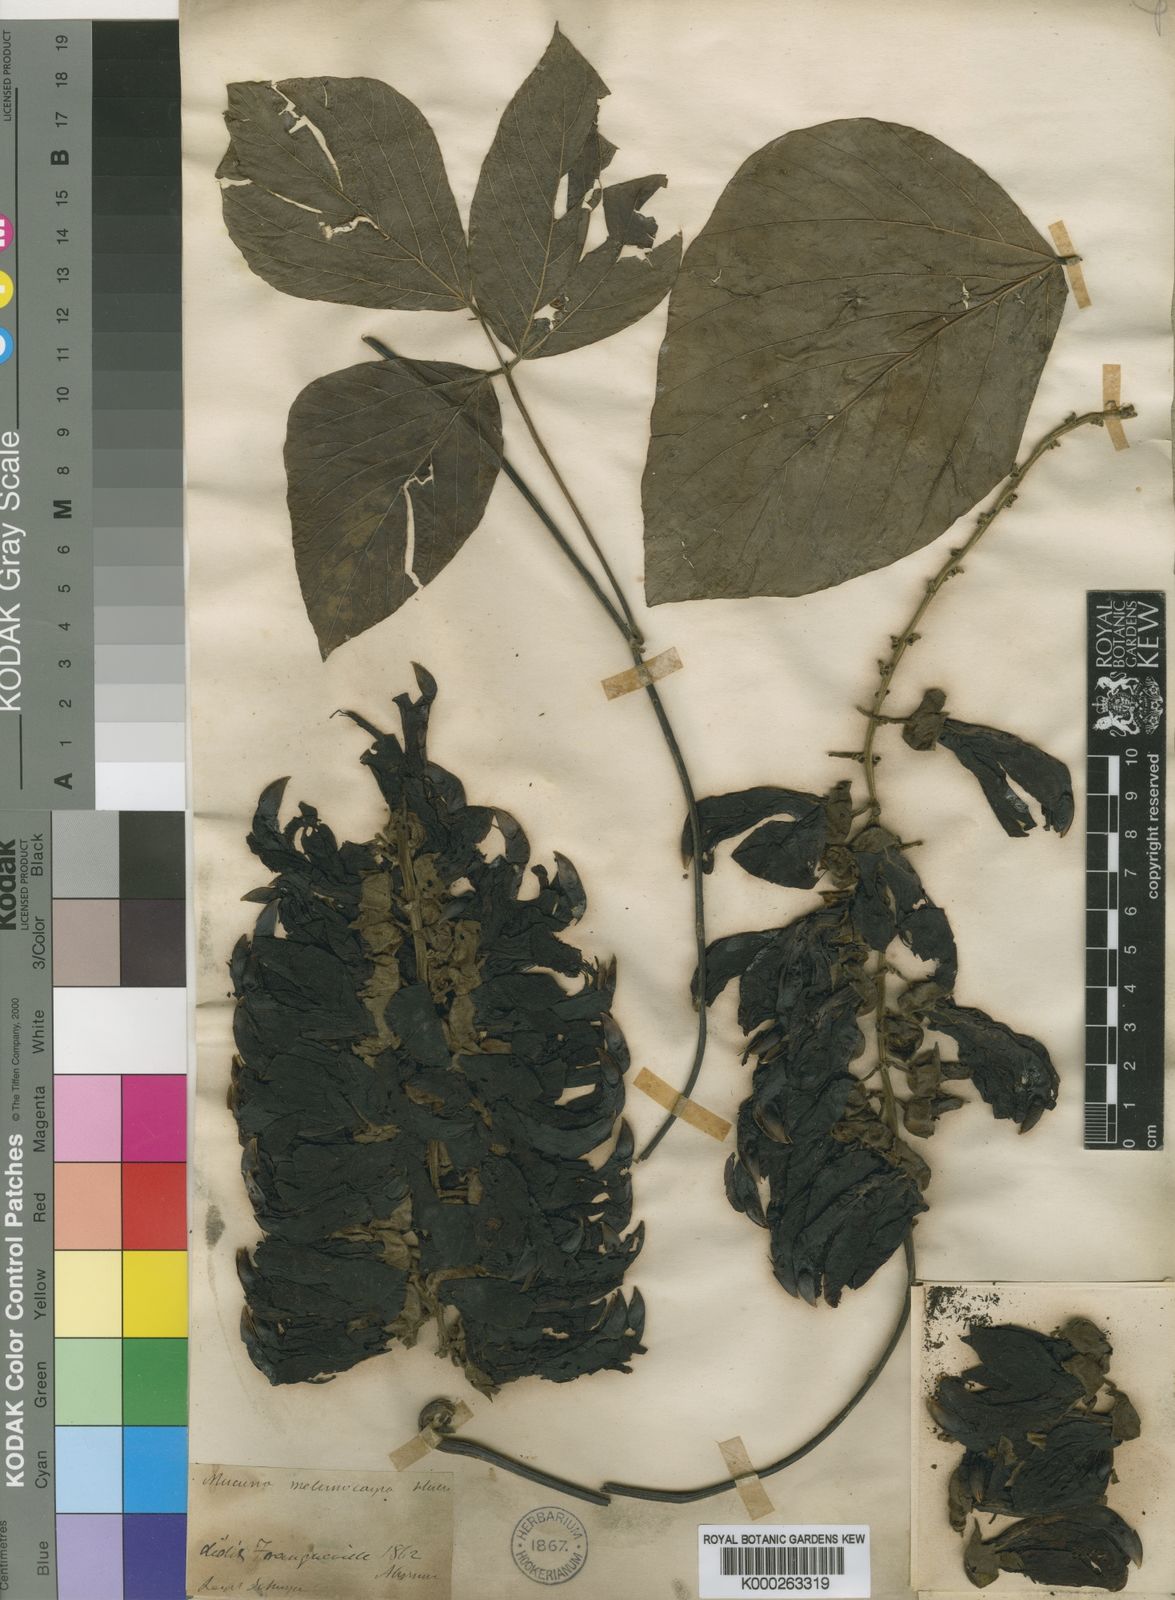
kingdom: Plantae
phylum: Tracheophyta
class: Magnoliopsida
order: Fabales
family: Fabaceae
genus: Mucuna
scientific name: Mucuna melanocarpa
